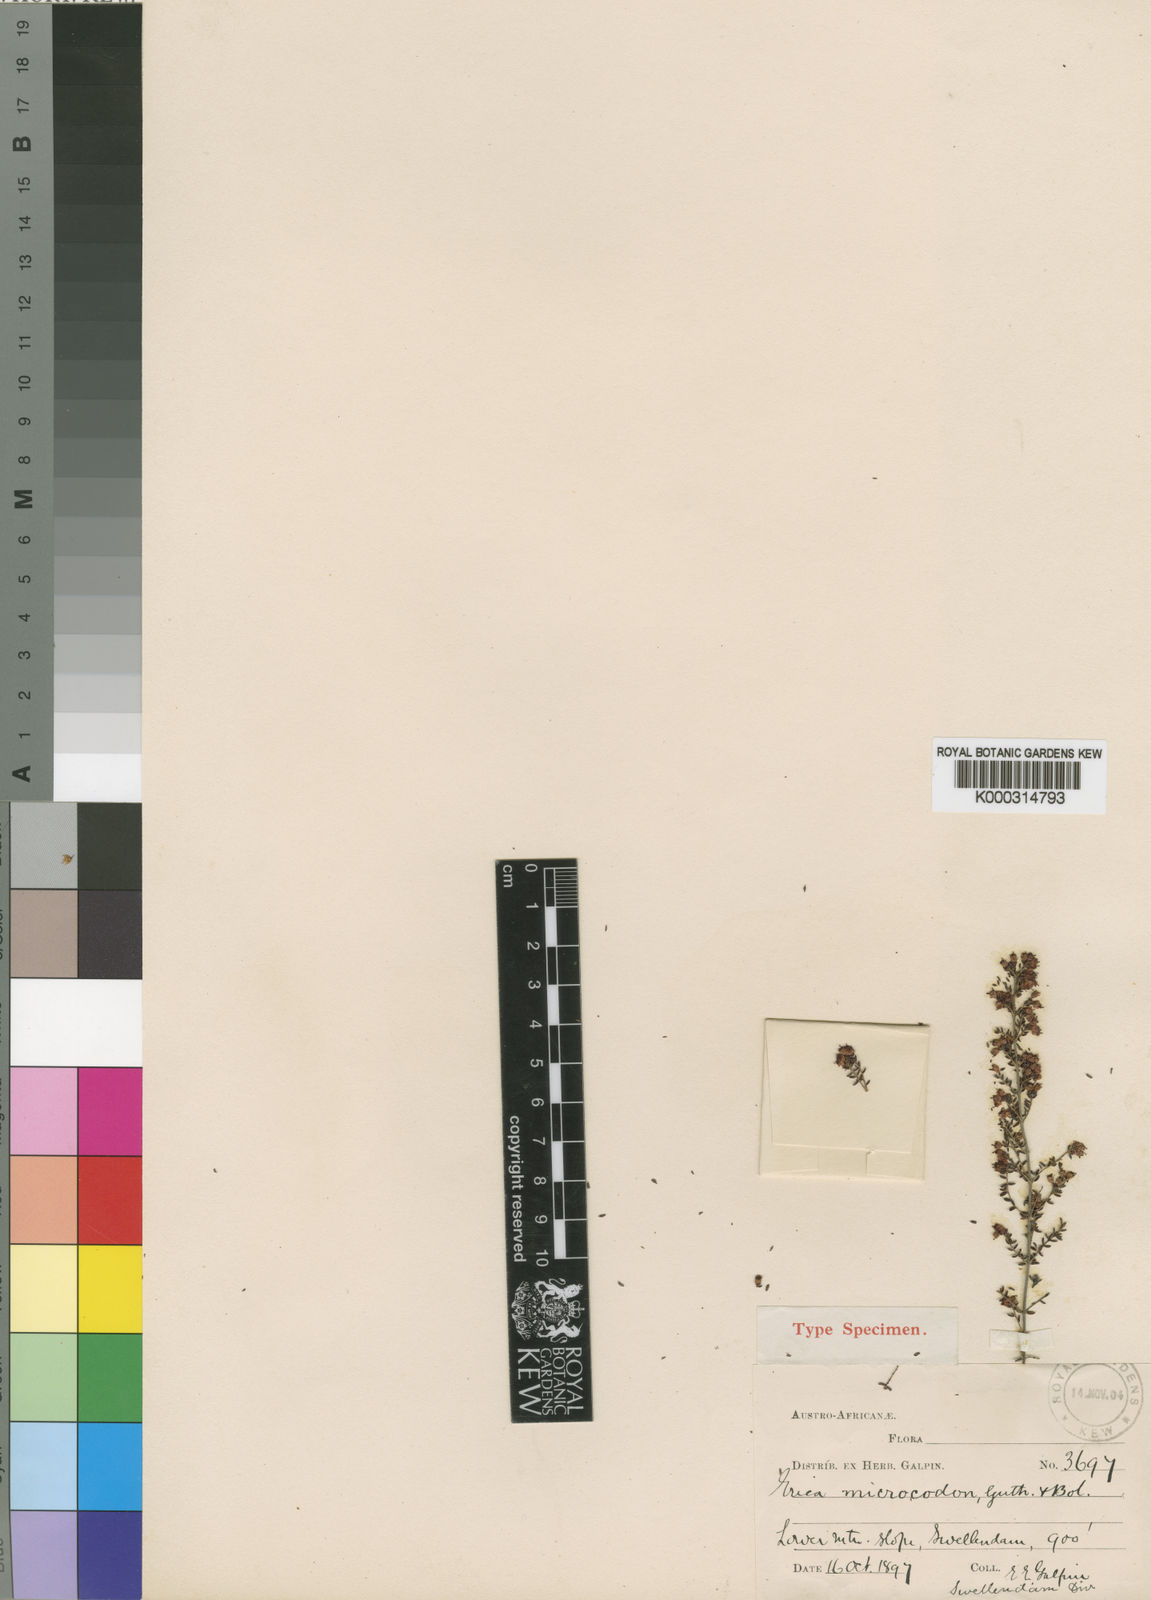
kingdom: Plantae
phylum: Tracheophyta
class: Magnoliopsida
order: Ericales
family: Ericaceae
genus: Erica
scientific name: Erica mundii
